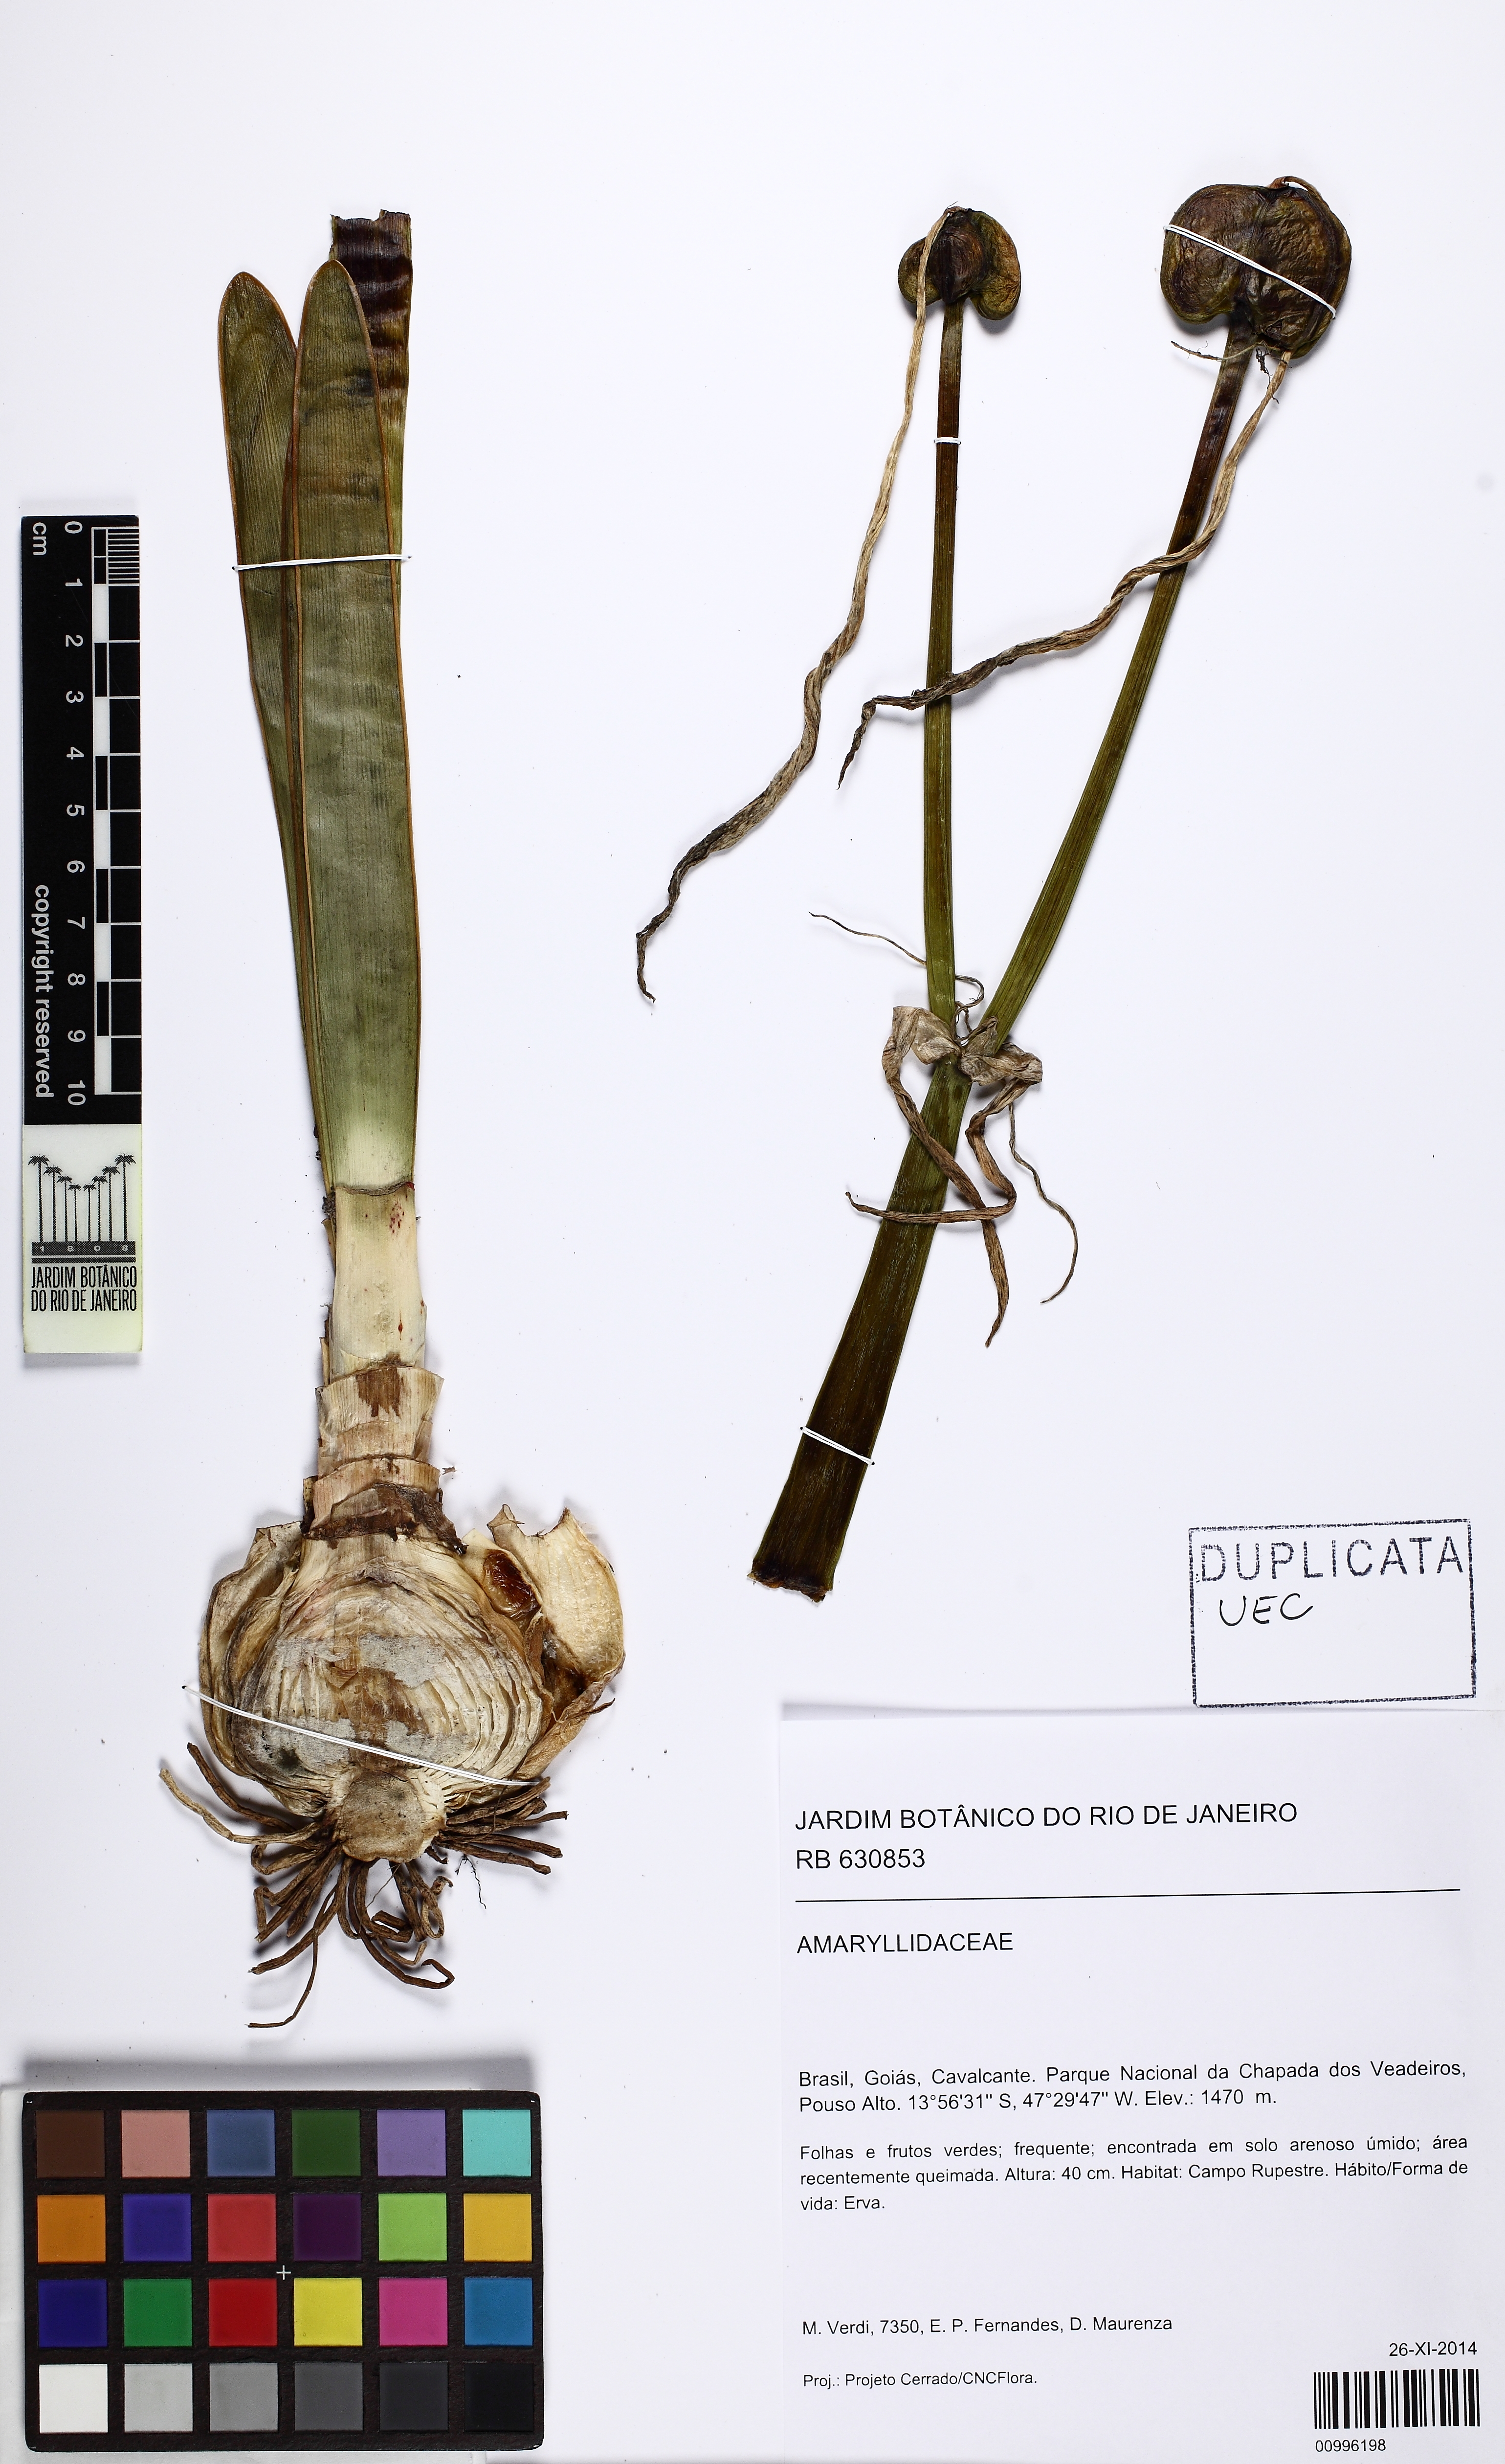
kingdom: Plantae
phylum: Tracheophyta
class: Liliopsida
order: Asparagales
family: Amaryllidaceae
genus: Hippeastrum
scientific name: Hippeastrum
